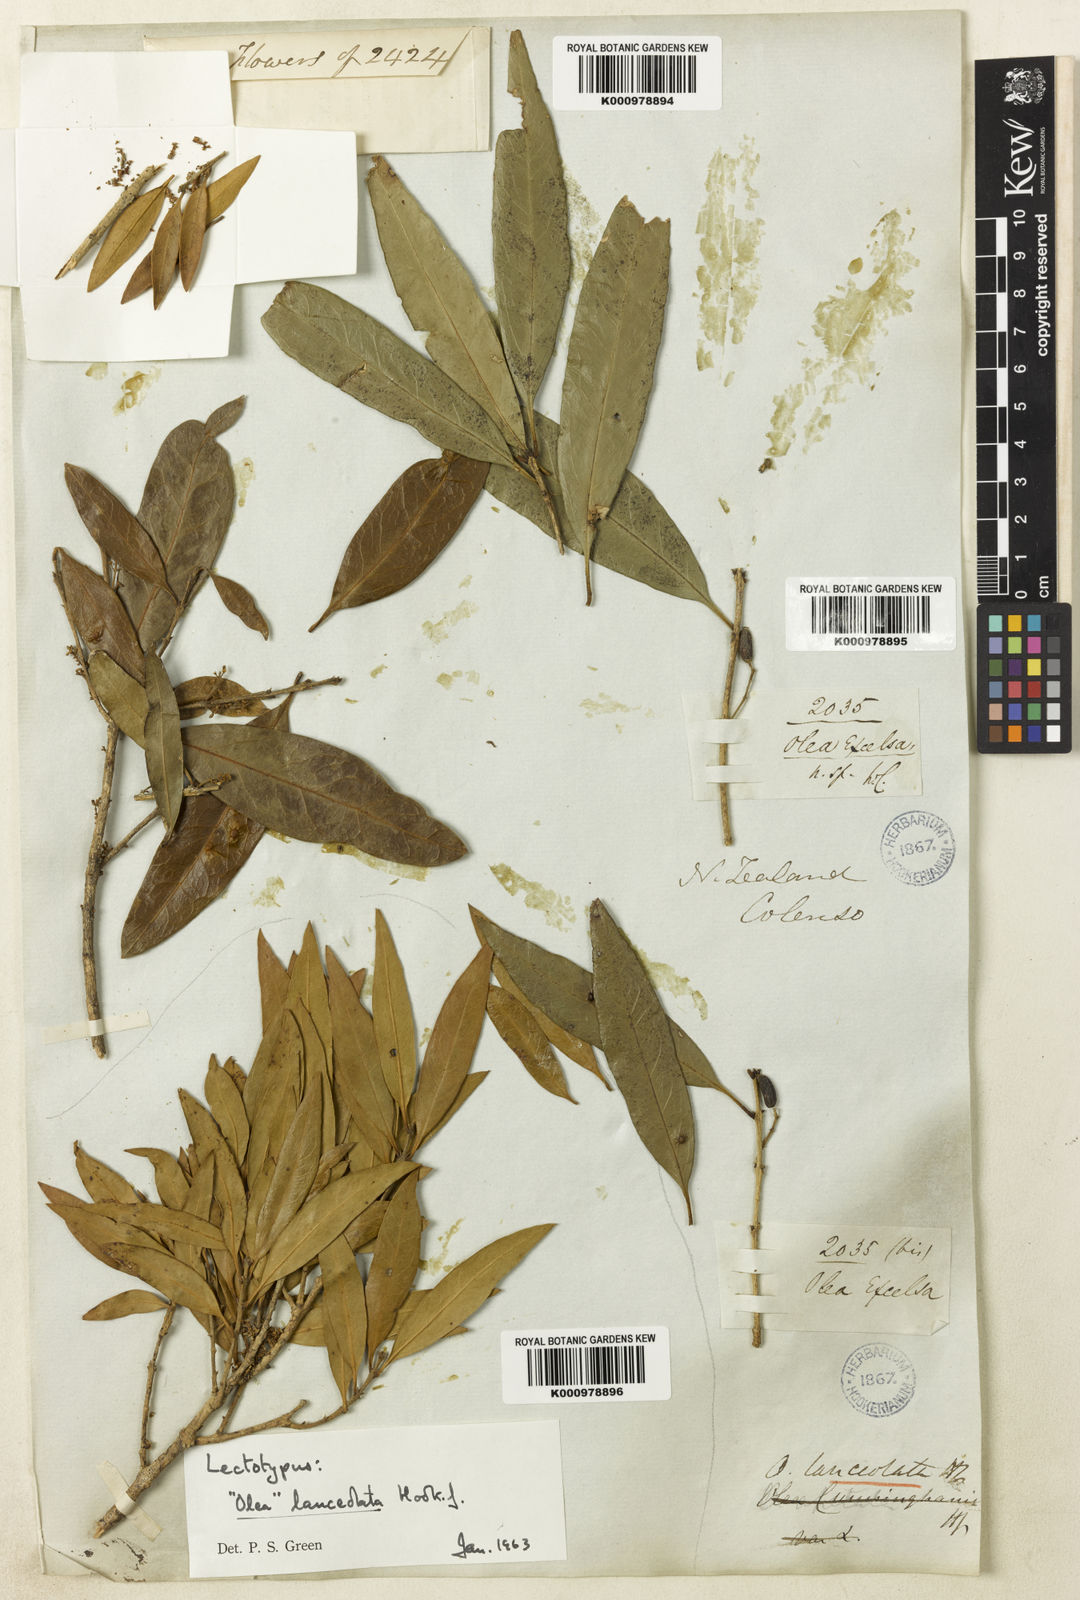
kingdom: Plantae
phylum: Tracheophyta
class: Magnoliopsida
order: Lamiales
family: Oleaceae
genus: Nestegis
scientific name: Nestegis lanceolata
